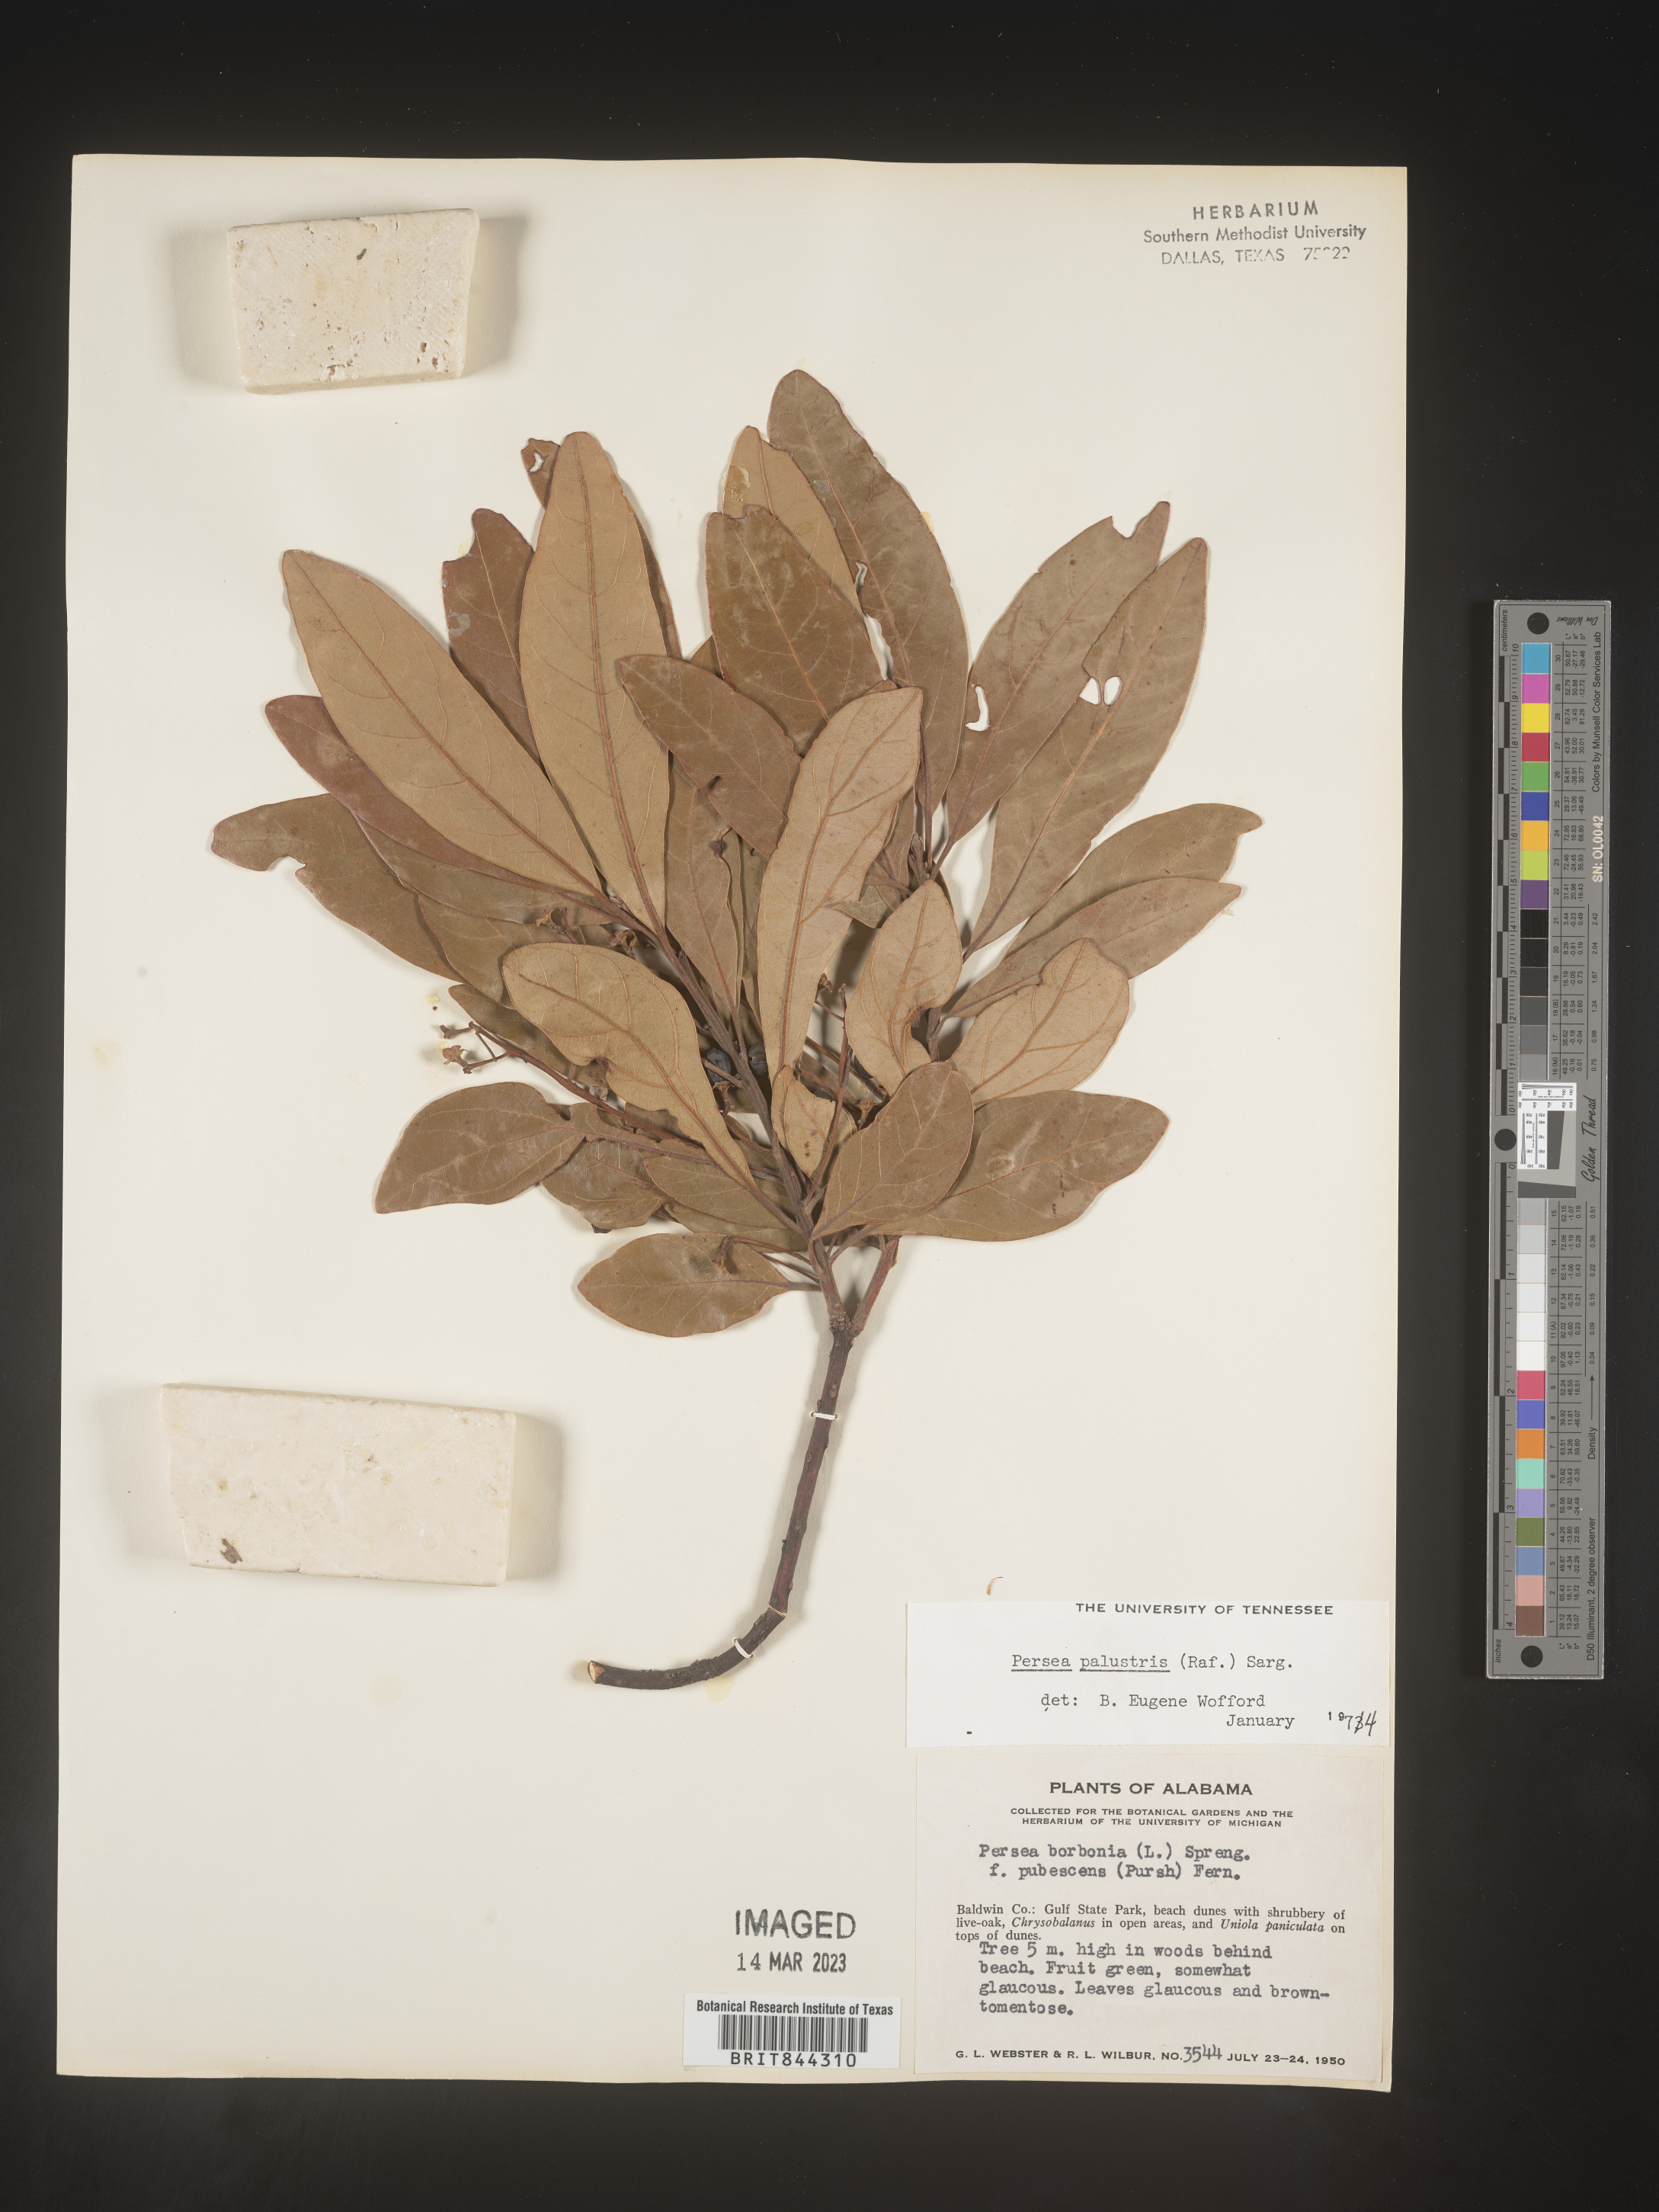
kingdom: Plantae
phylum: Tracheophyta
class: Magnoliopsida
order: Laurales
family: Lauraceae
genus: Persea
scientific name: Persea palustris
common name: Swampbay
